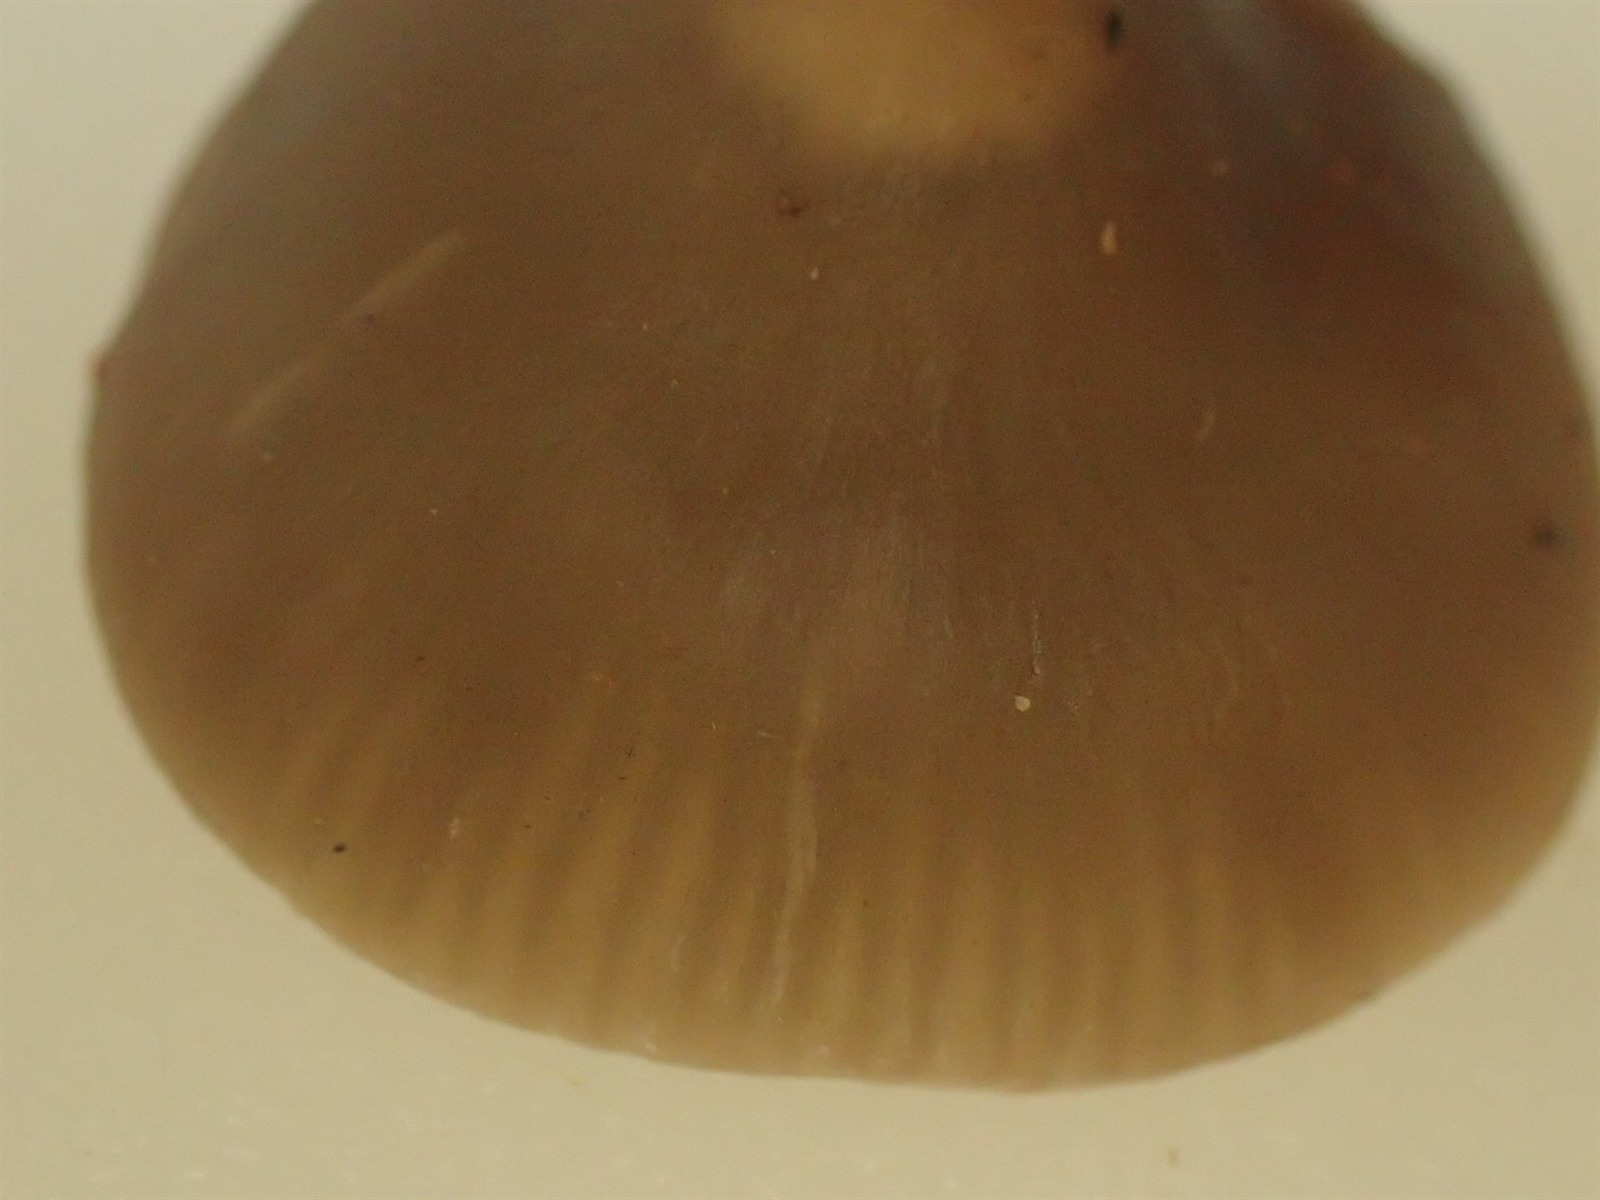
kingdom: Fungi
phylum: Basidiomycota
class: Agaricomycetes
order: Agaricales
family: Lyophyllaceae
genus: Myochromella
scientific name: Myochromella boudieri
